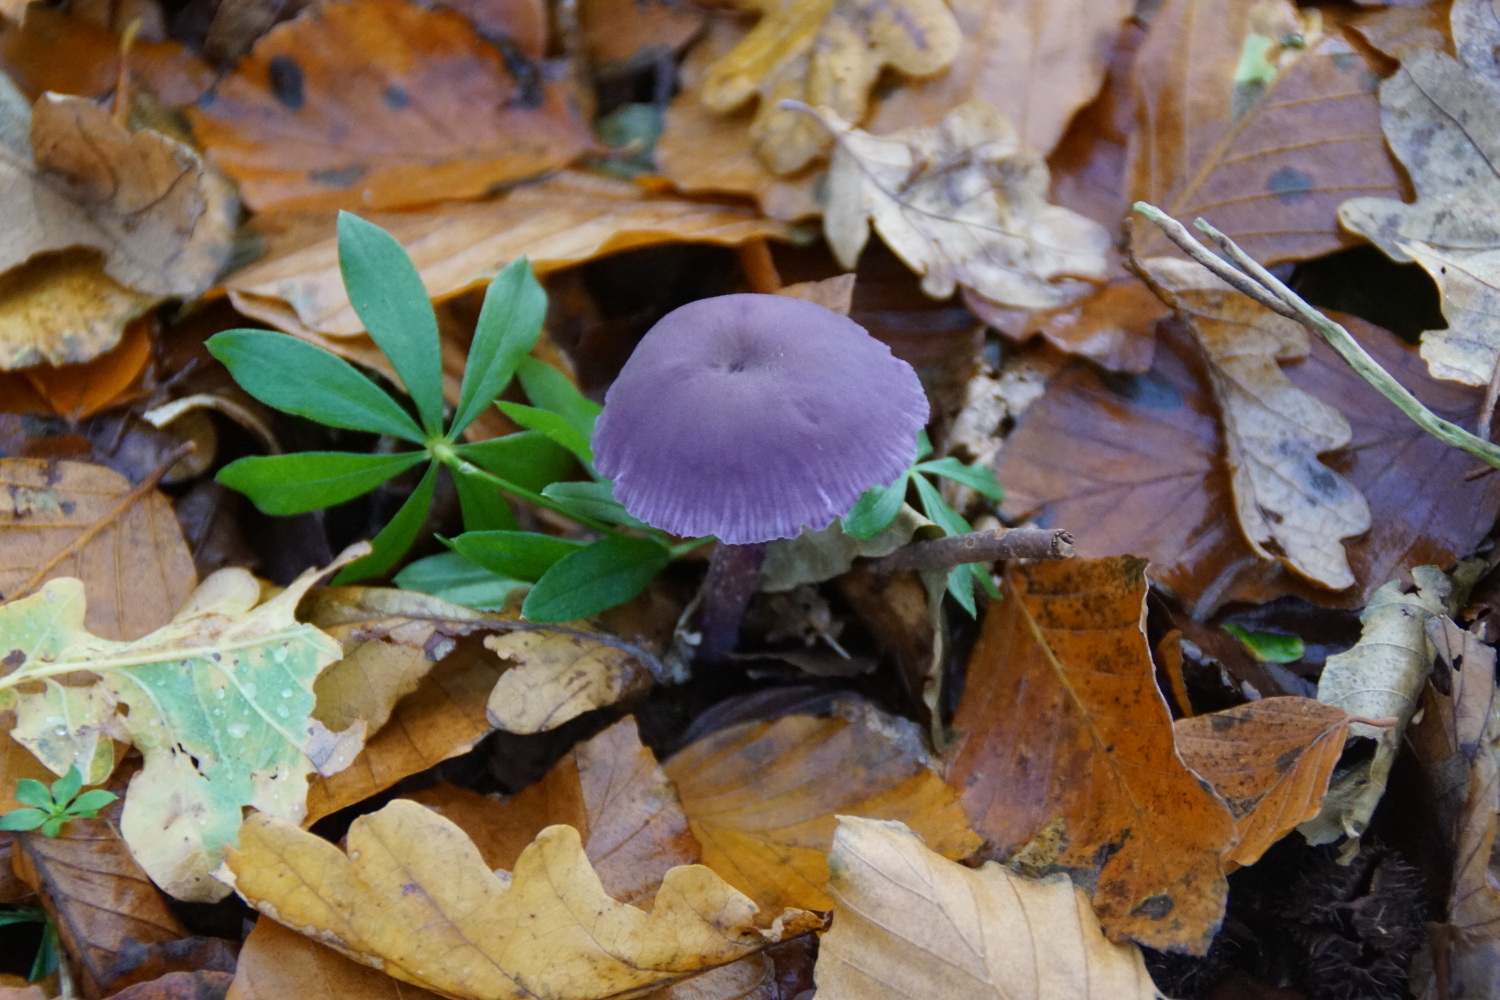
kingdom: Fungi
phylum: Basidiomycota
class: Agaricomycetes
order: Agaricales
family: Hydnangiaceae
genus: Laccaria
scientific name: Laccaria amethystina
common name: violet ametysthat
